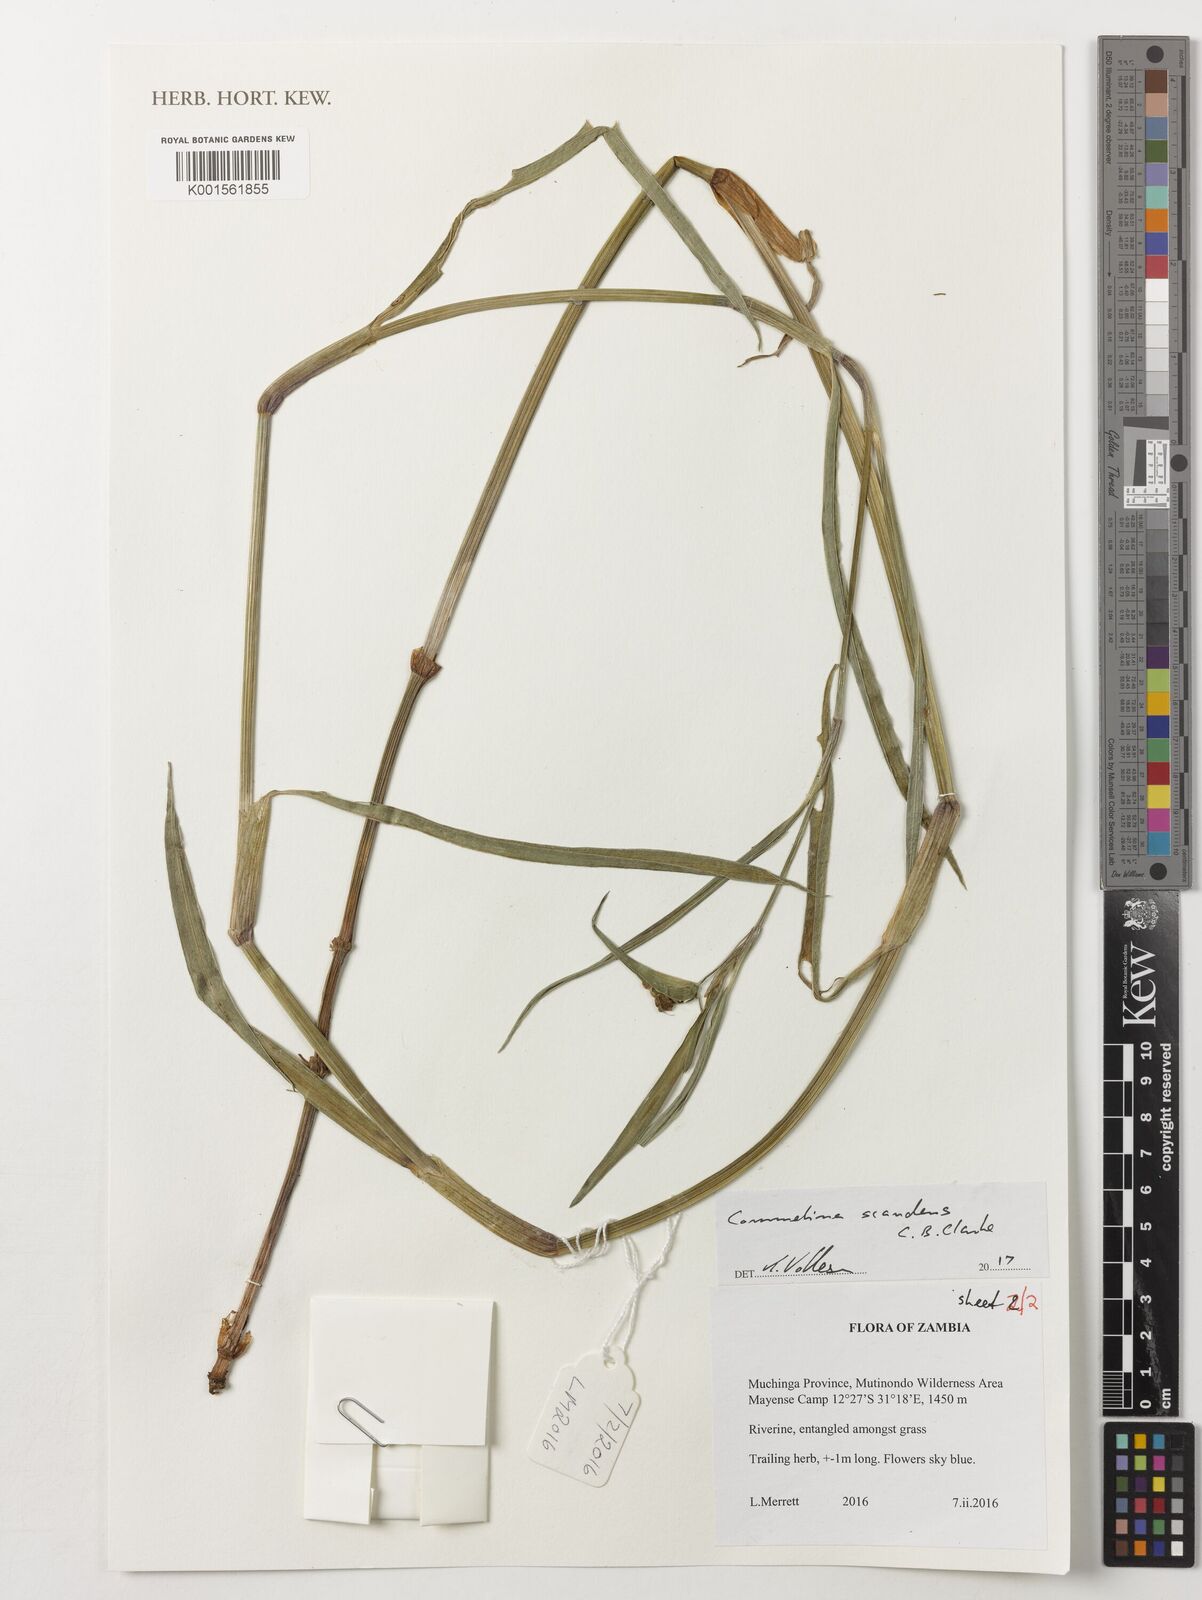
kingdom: Plantae
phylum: Tracheophyta
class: Liliopsida
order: Commelinales
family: Commelinaceae
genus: Commelina
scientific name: Commelina scandens
